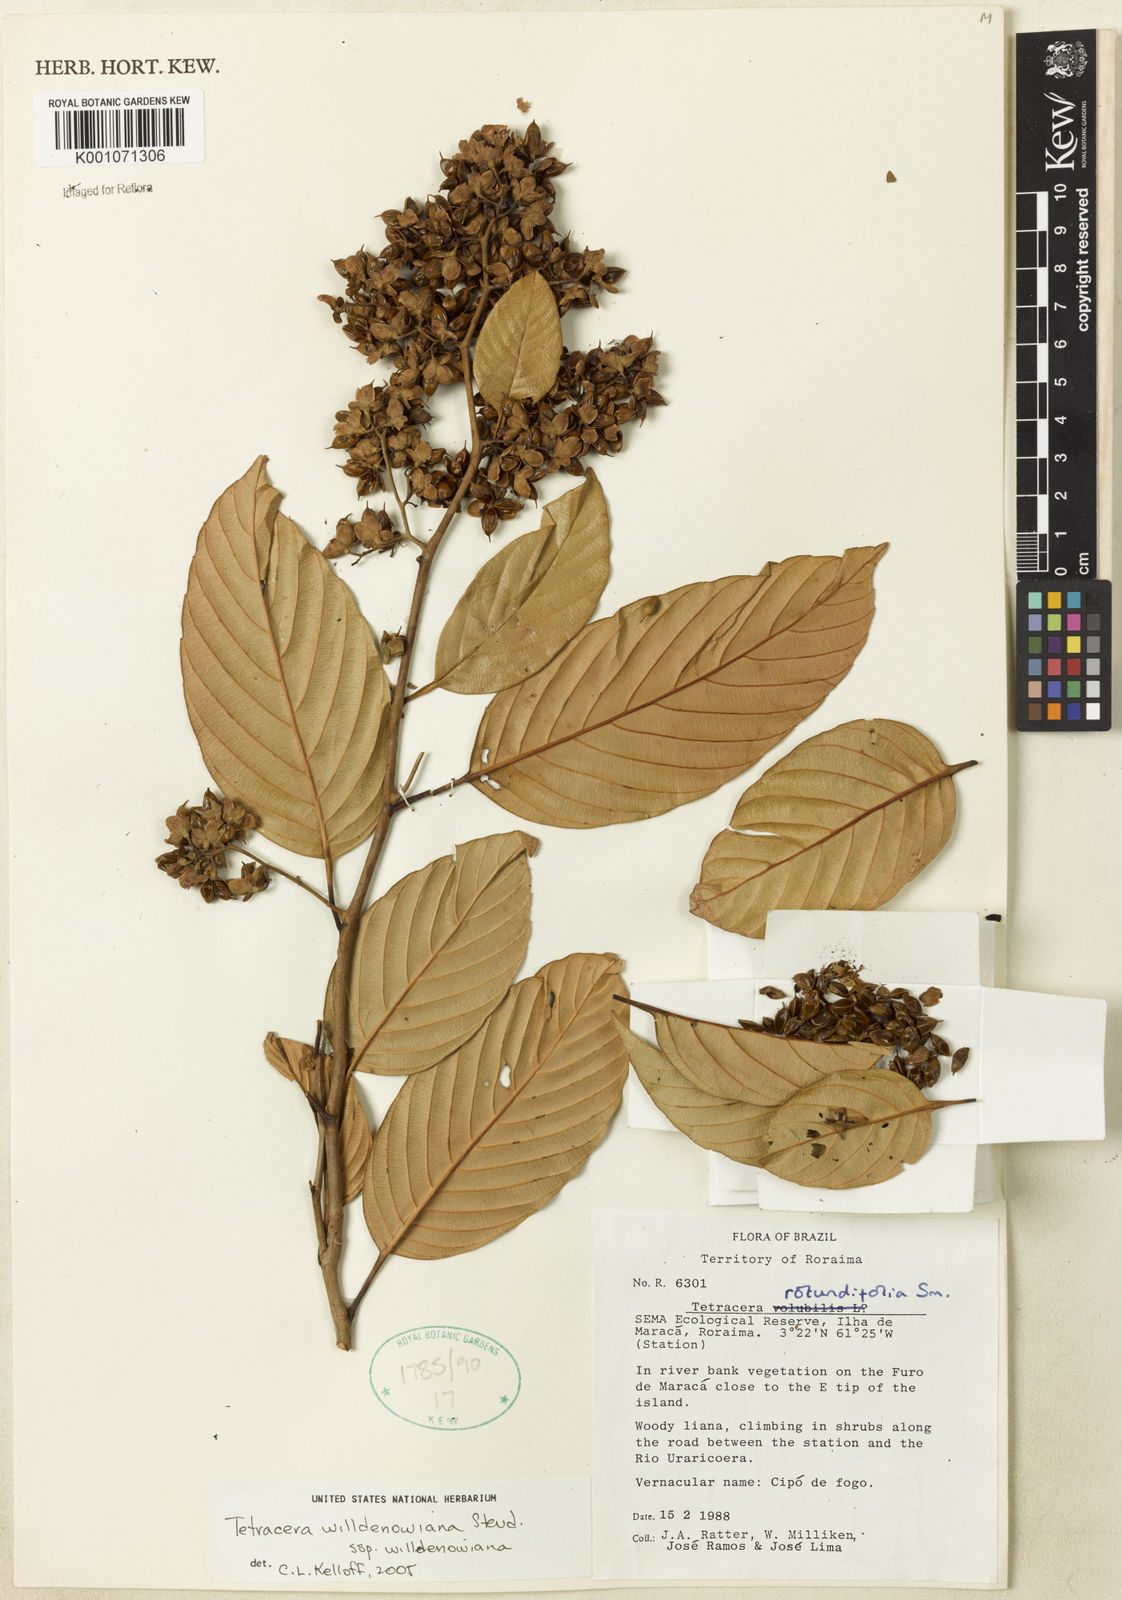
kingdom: Plantae
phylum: Tracheophyta
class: Magnoliopsida
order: Dilleniales
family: Dilleniaceae
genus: Tetracera
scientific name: Tetracera rotundifolia
